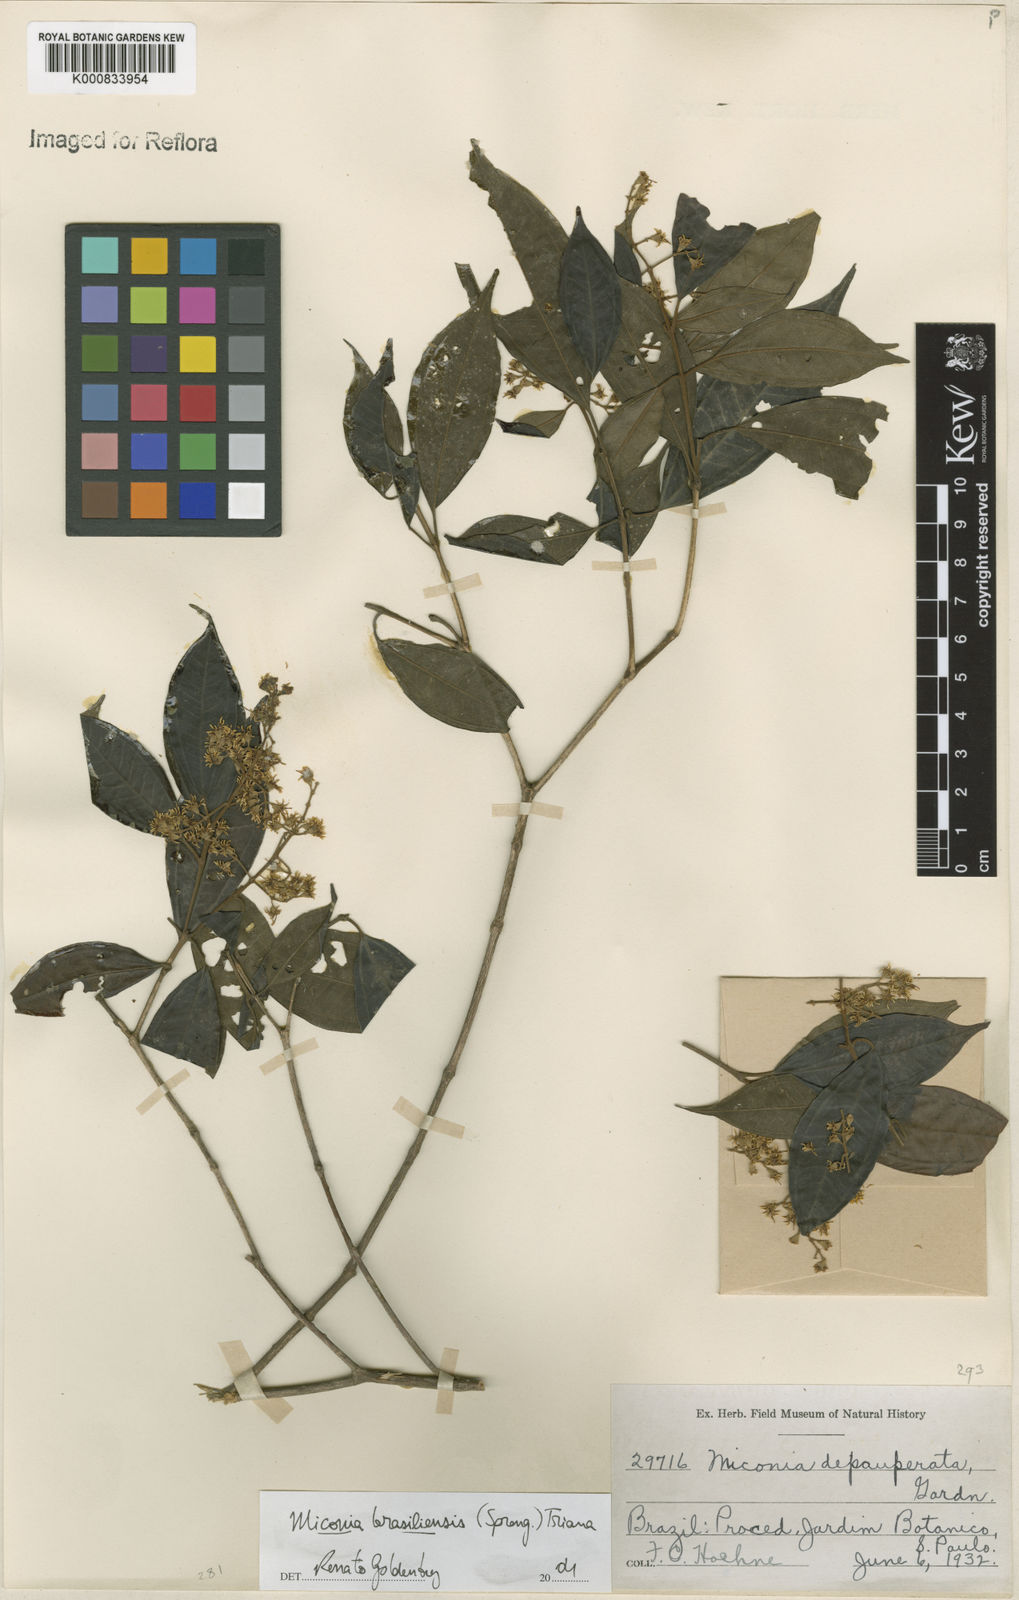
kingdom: Plantae
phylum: Tracheophyta
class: Magnoliopsida
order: Myrtales
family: Melastomataceae
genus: Miconia
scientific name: Miconia brasiliensis
